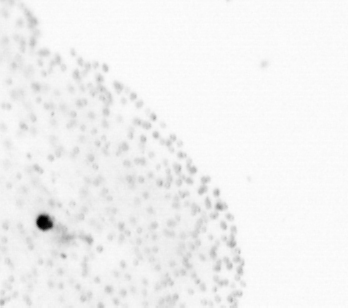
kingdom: Chromista
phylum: Ochrophyta
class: Bacillariophyceae
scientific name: Bacillariophyceae
